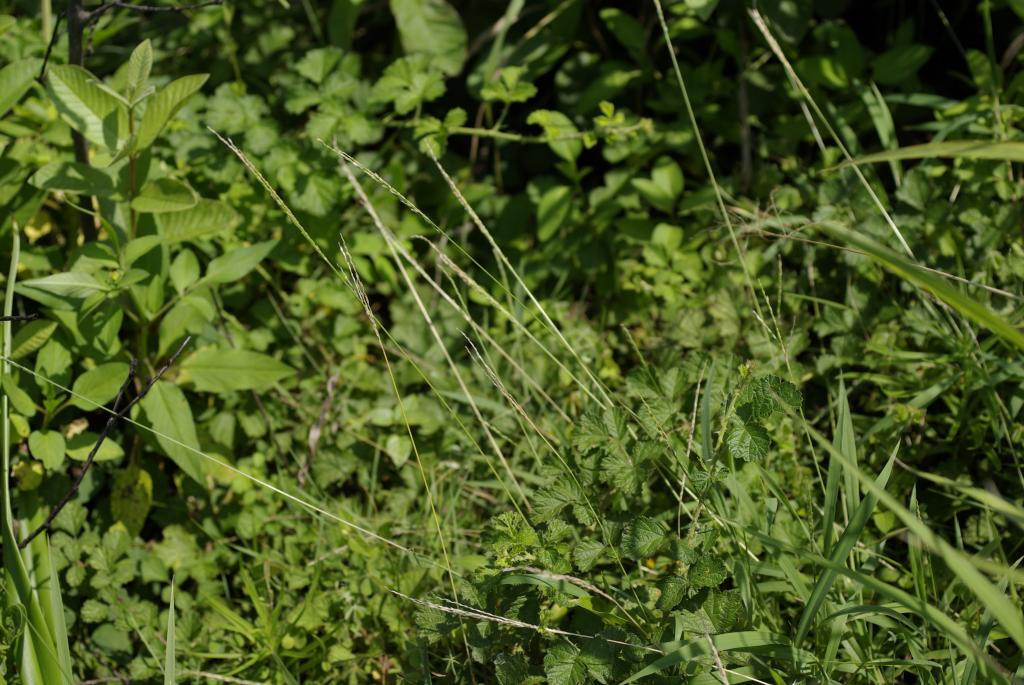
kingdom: Plantae
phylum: Tracheophyta
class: Liliopsida
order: Poales
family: Poaceae
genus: Digitaria
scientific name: Digitaria ciliaris
